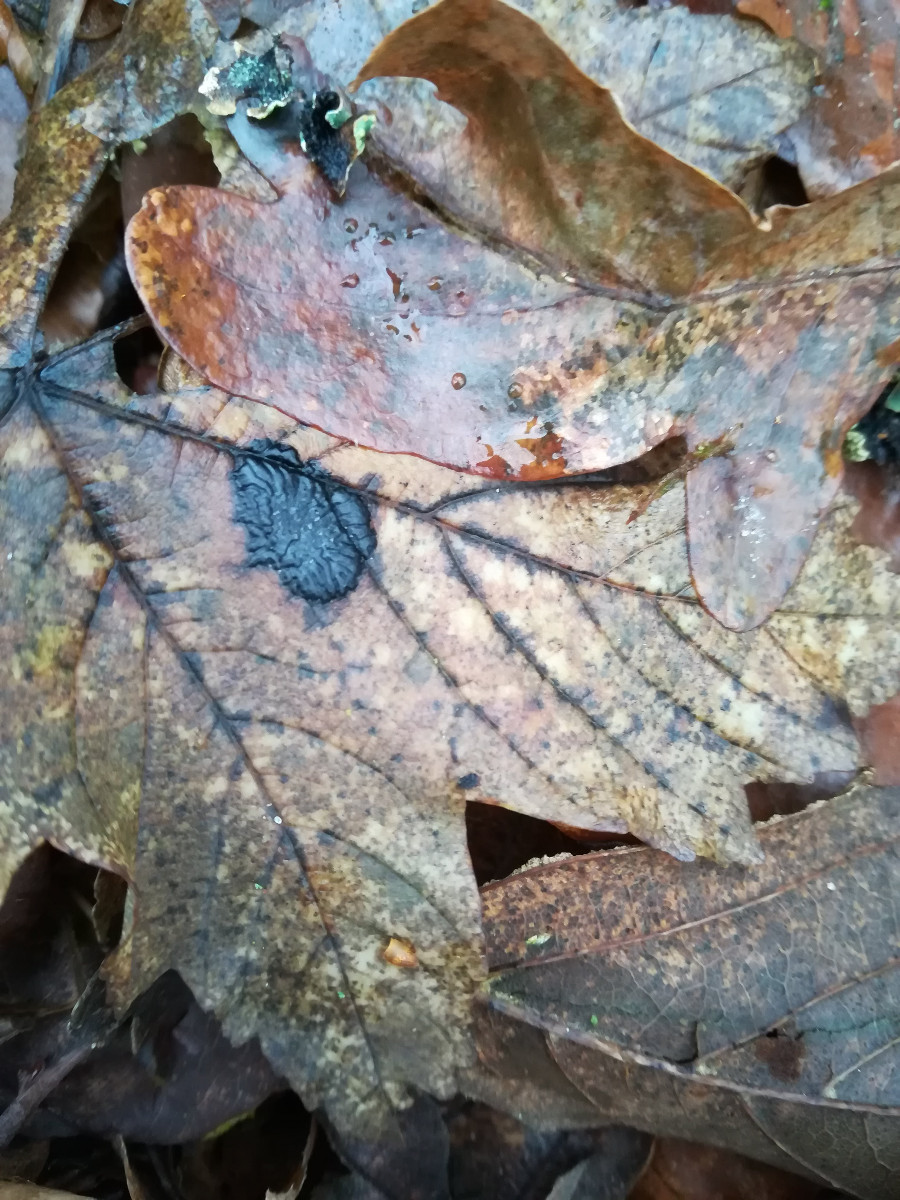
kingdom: Fungi
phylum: Ascomycota
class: Leotiomycetes
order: Rhytismatales
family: Rhytismataceae
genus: Rhytisma
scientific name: Rhytisma acerinum
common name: ahorn-rynkeplet
